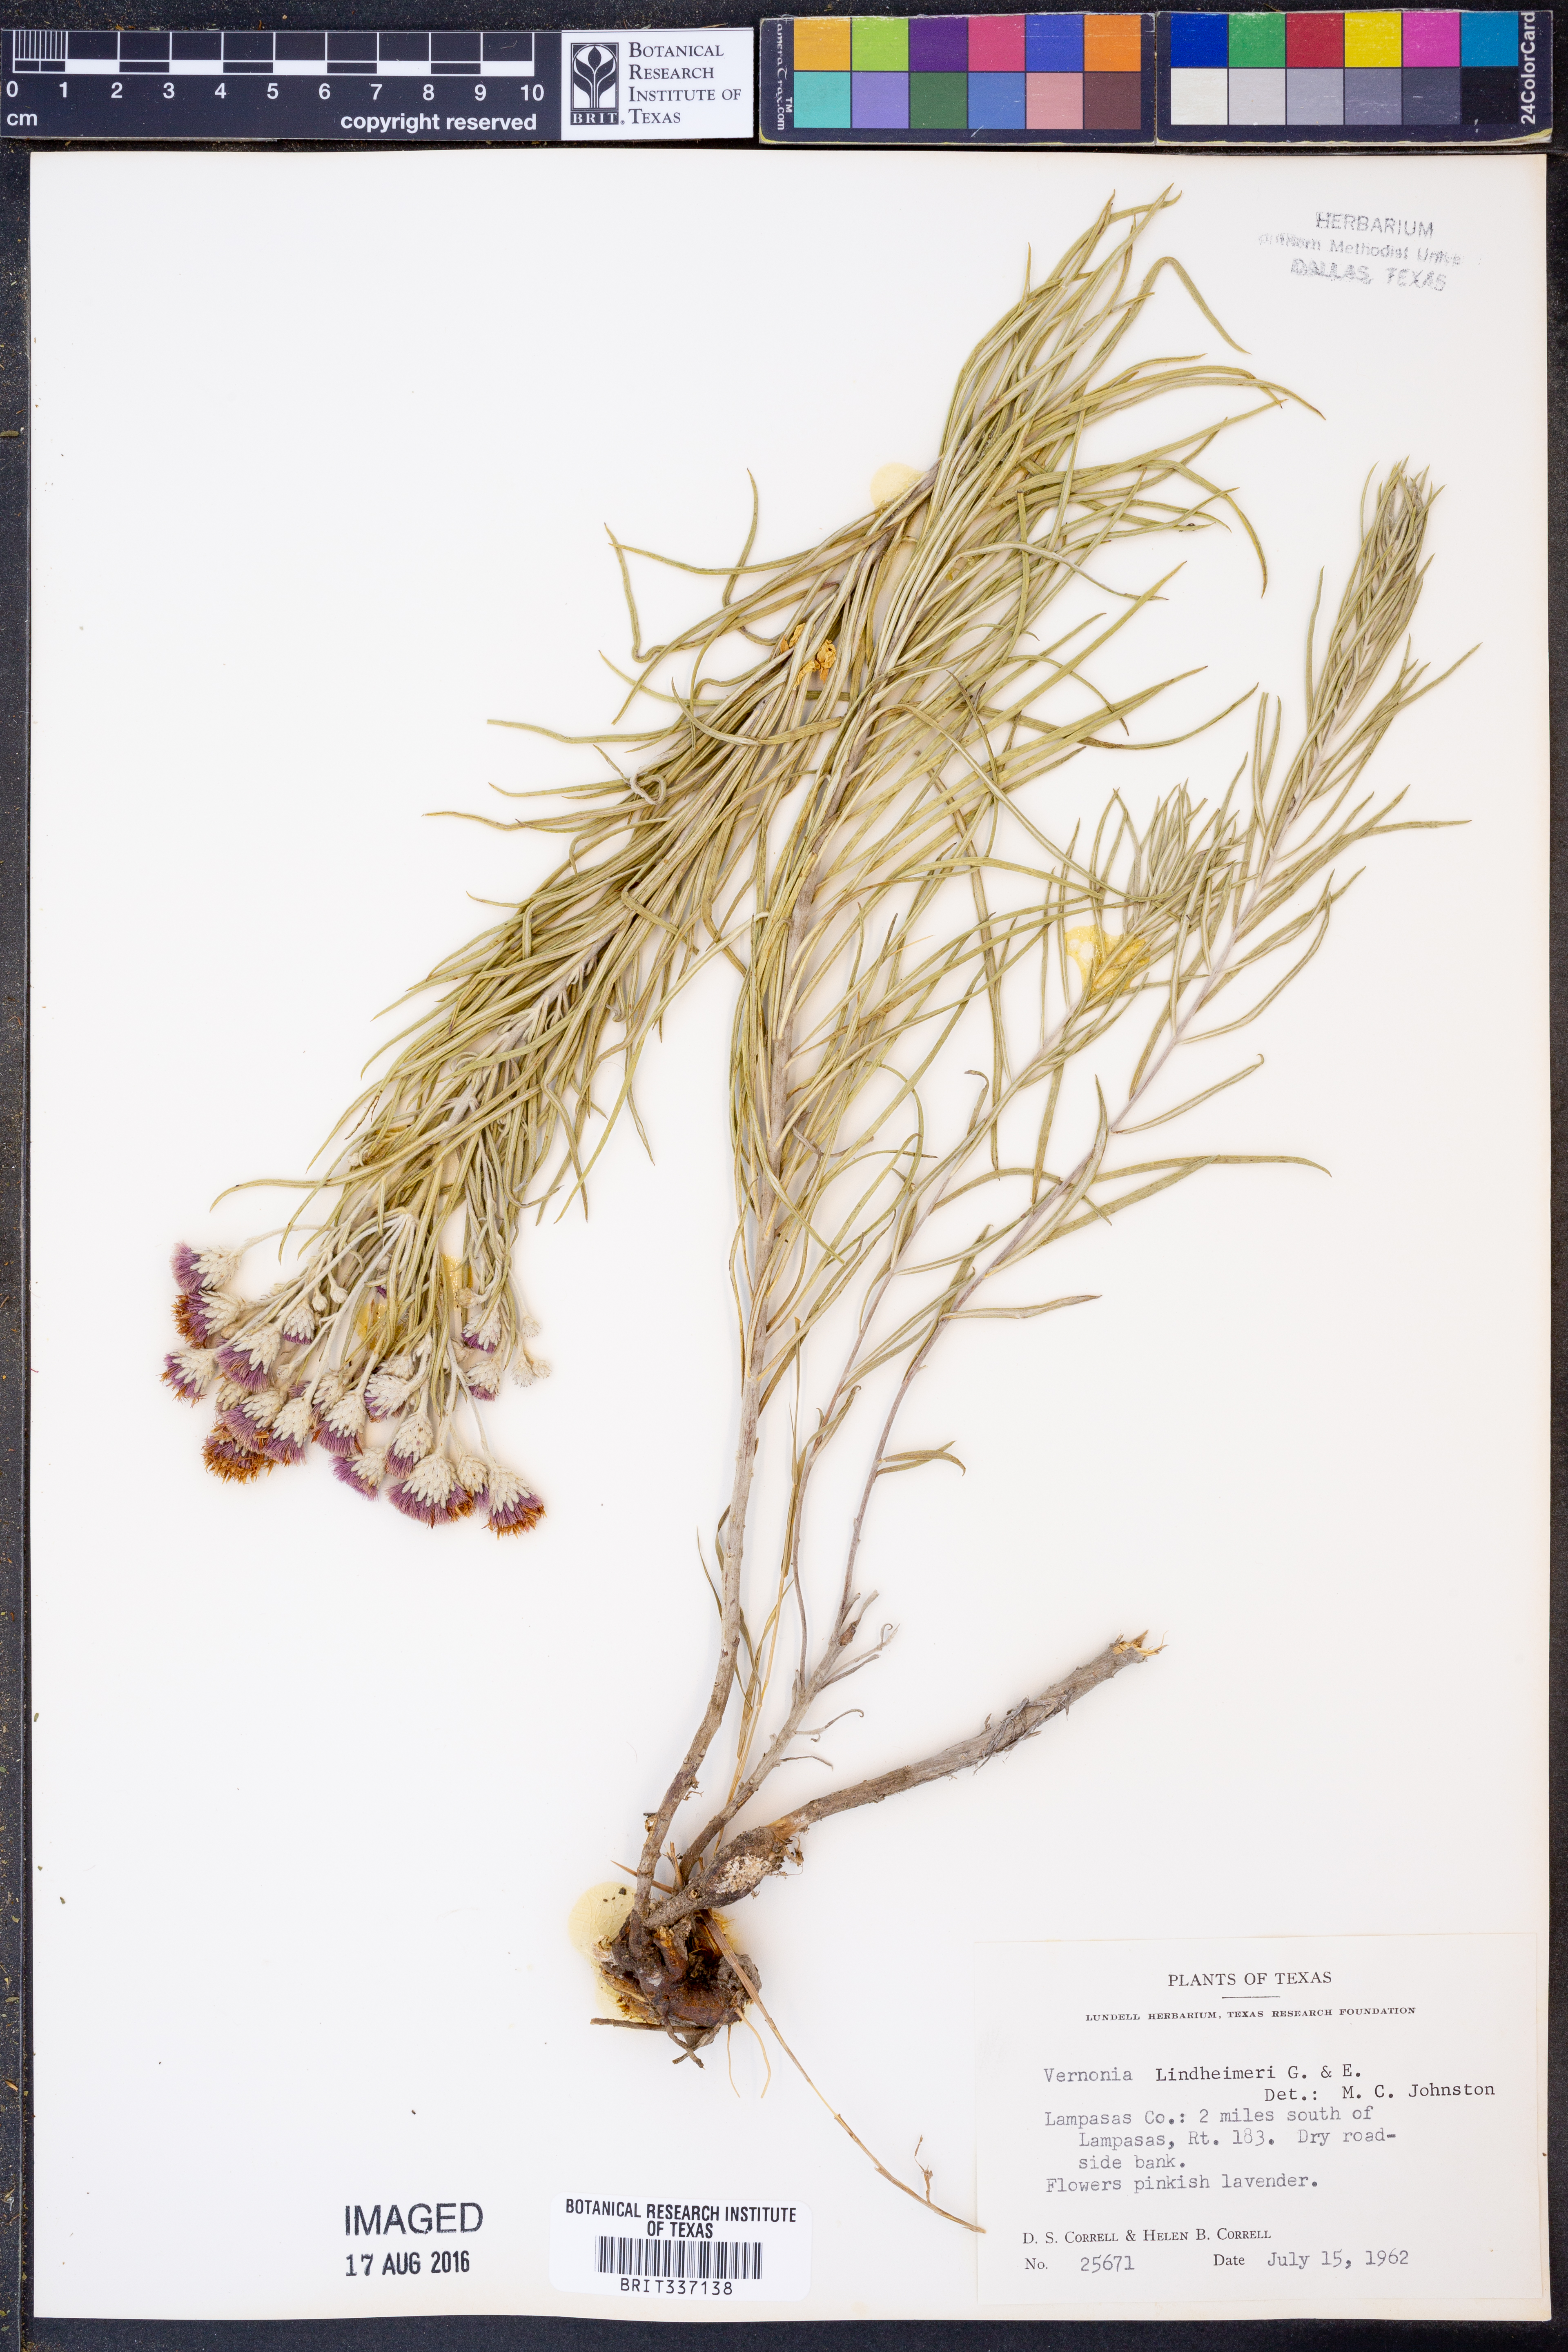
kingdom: Plantae
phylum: Tracheophyta
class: Magnoliopsida
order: Asterales
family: Asteraceae
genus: Vernonia
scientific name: Vernonia lindheimeri
